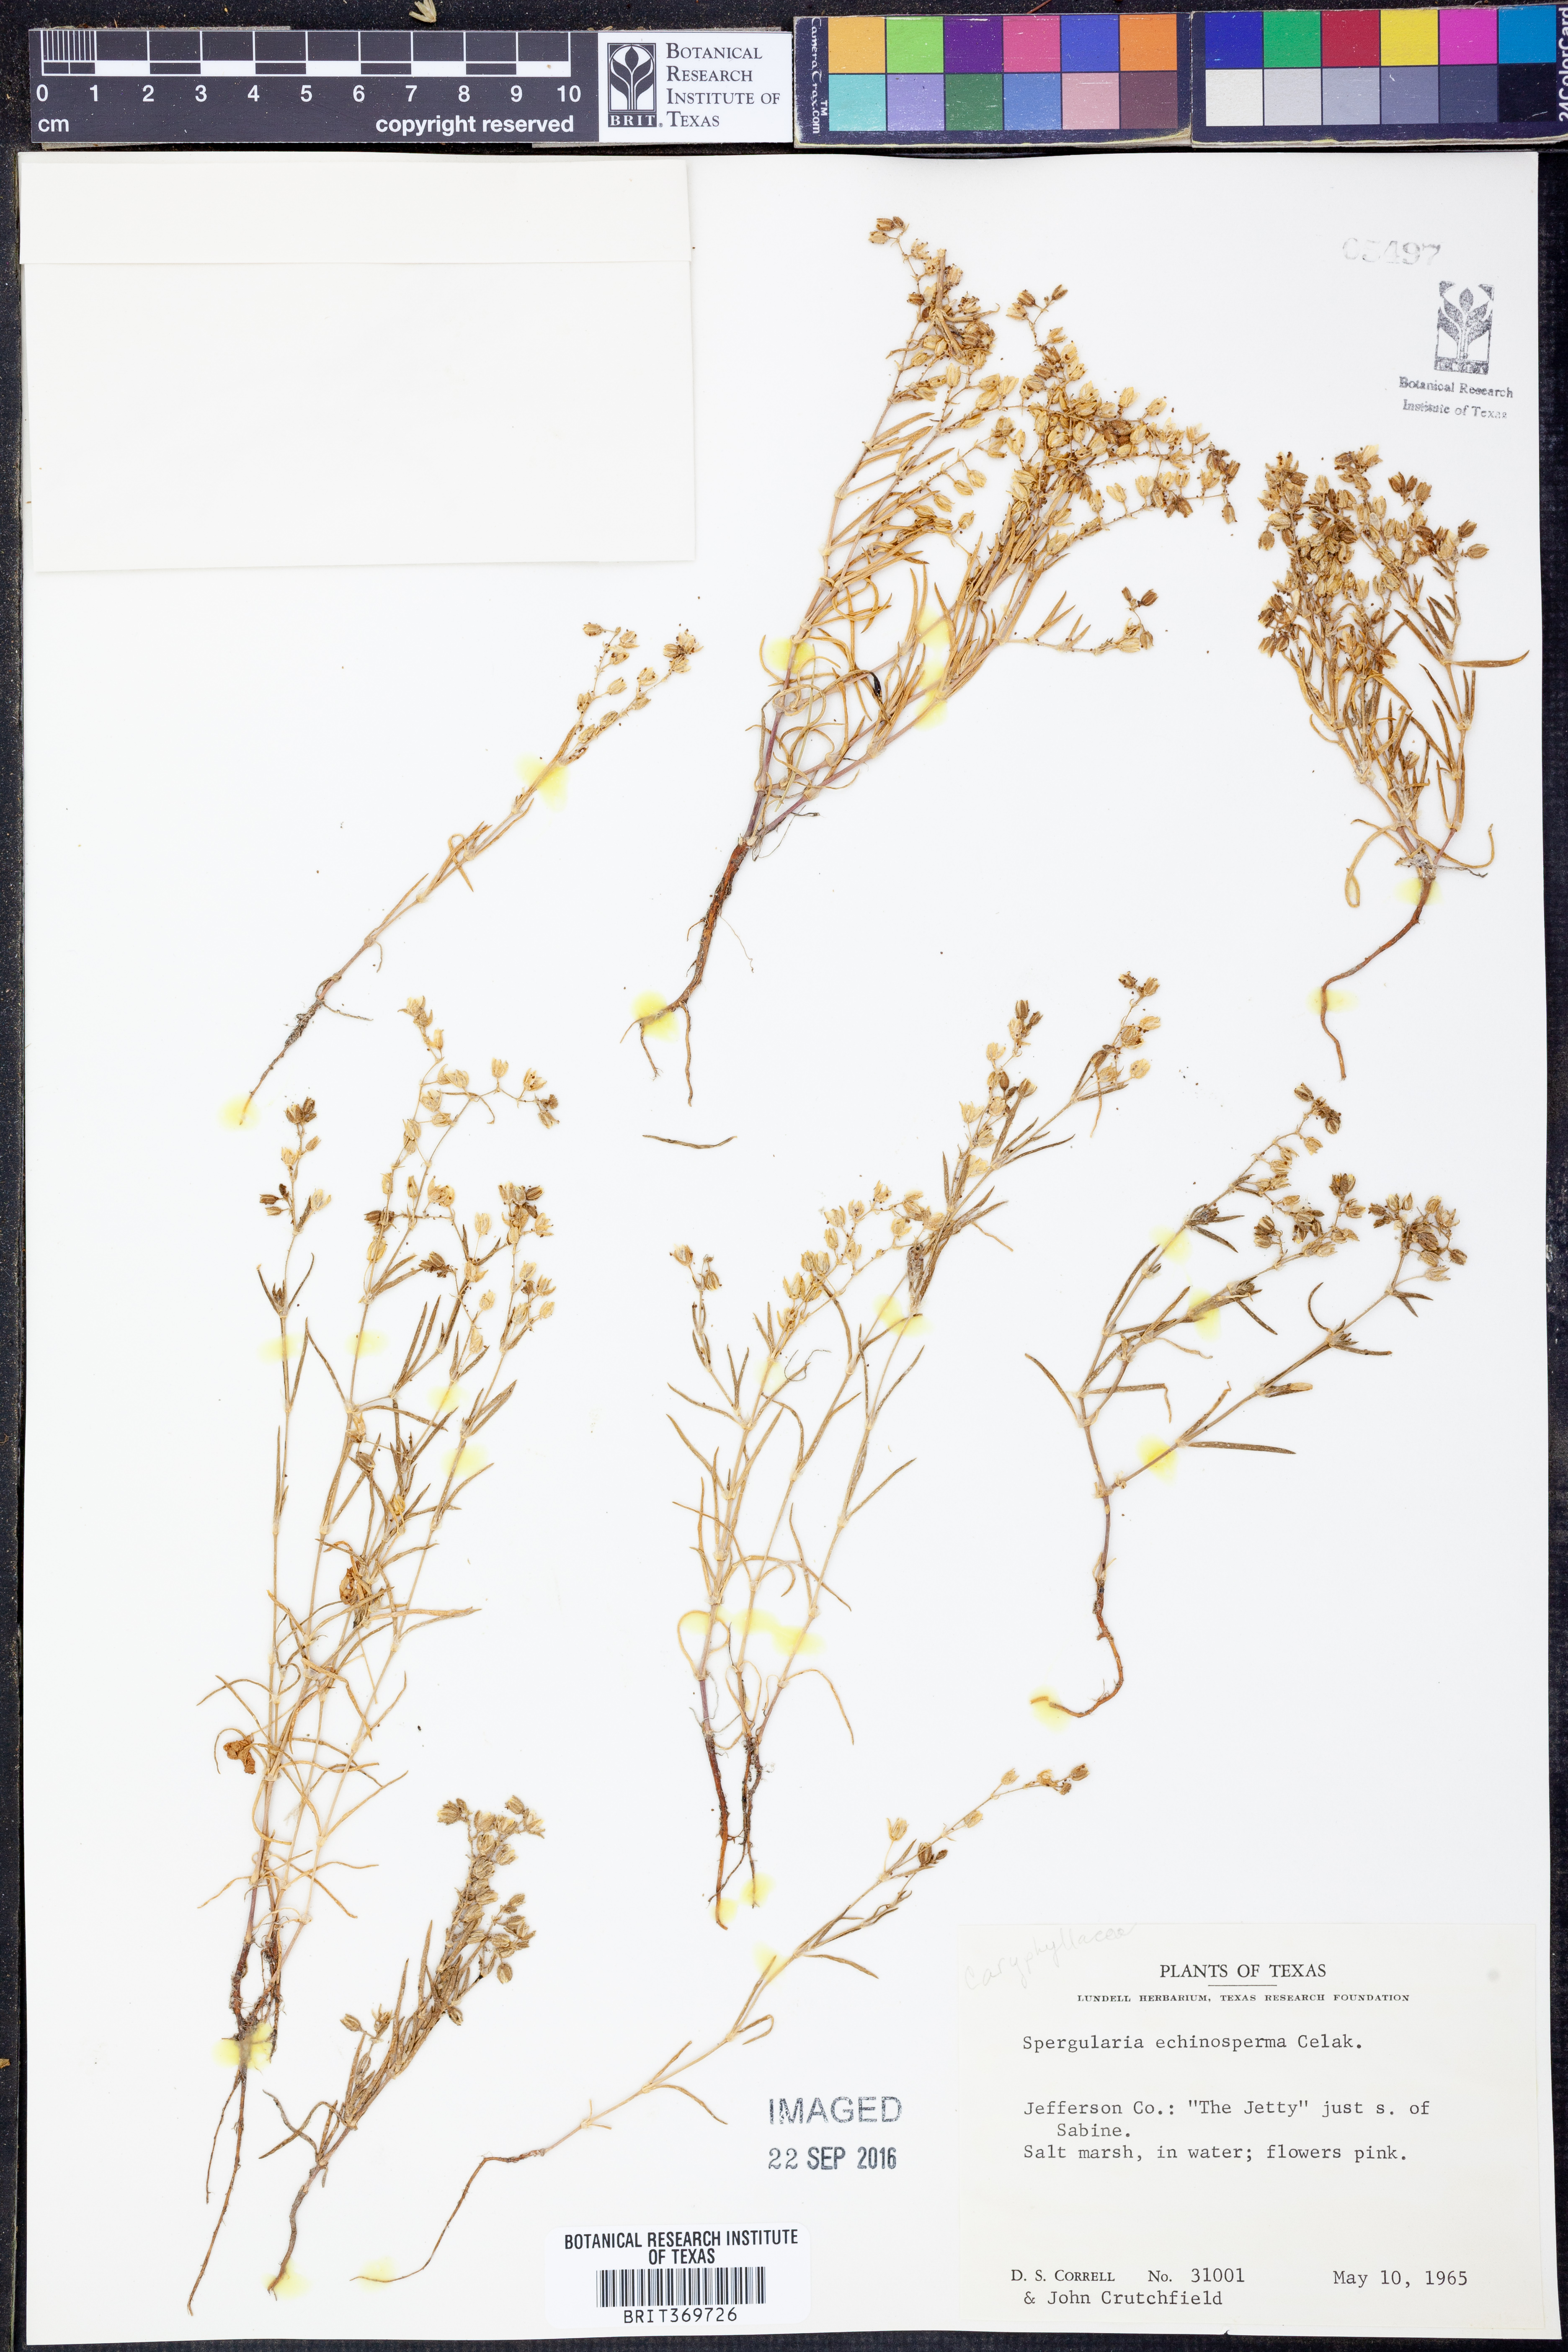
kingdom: Plantae
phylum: Tracheophyta
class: Magnoliopsida
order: Caryophyllales
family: Caryophyllaceae
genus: Spergularia
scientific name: Spergularia echinosperma
